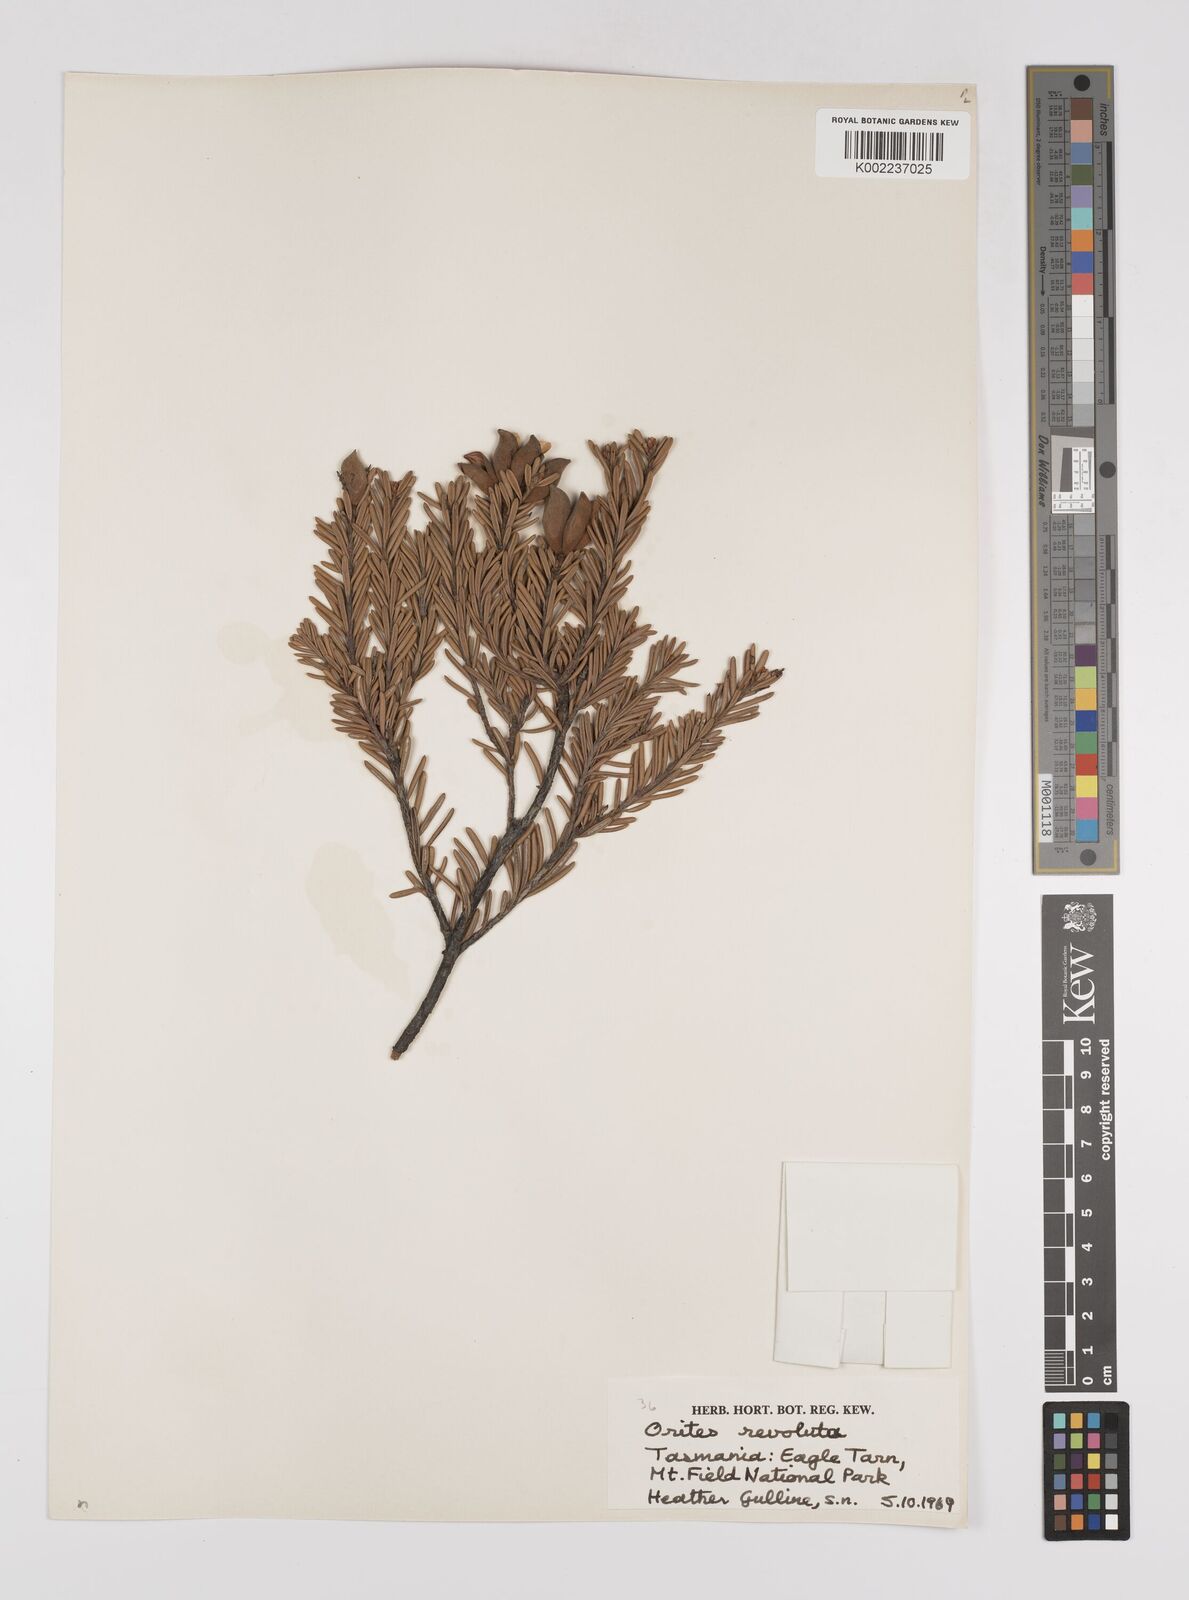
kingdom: Plantae
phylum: Tracheophyta
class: Magnoliopsida
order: Proteales
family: Proteaceae
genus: Orites
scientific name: Orites revolutus
